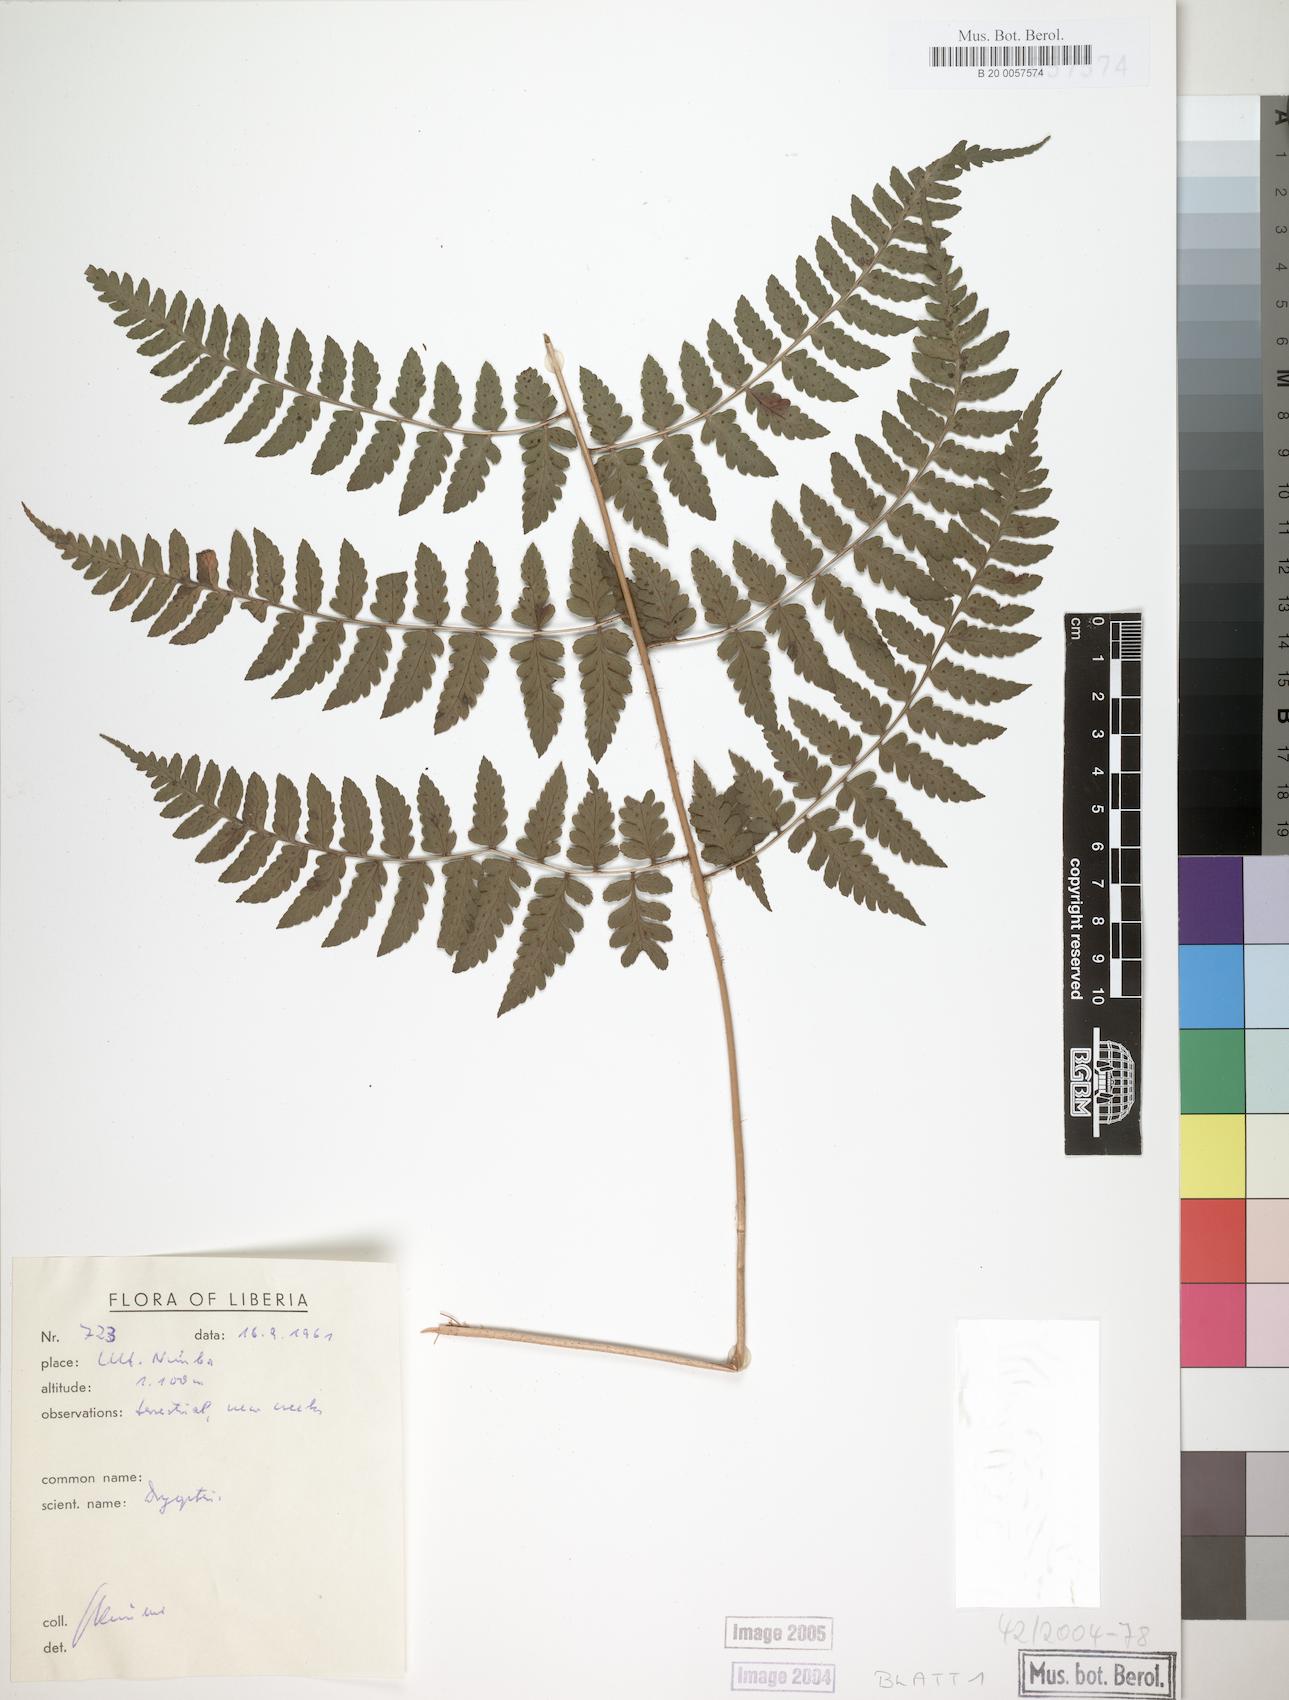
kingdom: Plantae
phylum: Tracheophyta
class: Polypodiopsida
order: Polypodiales
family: Dryopteridaceae
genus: Dryopteris
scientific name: Dryopteris manniana
